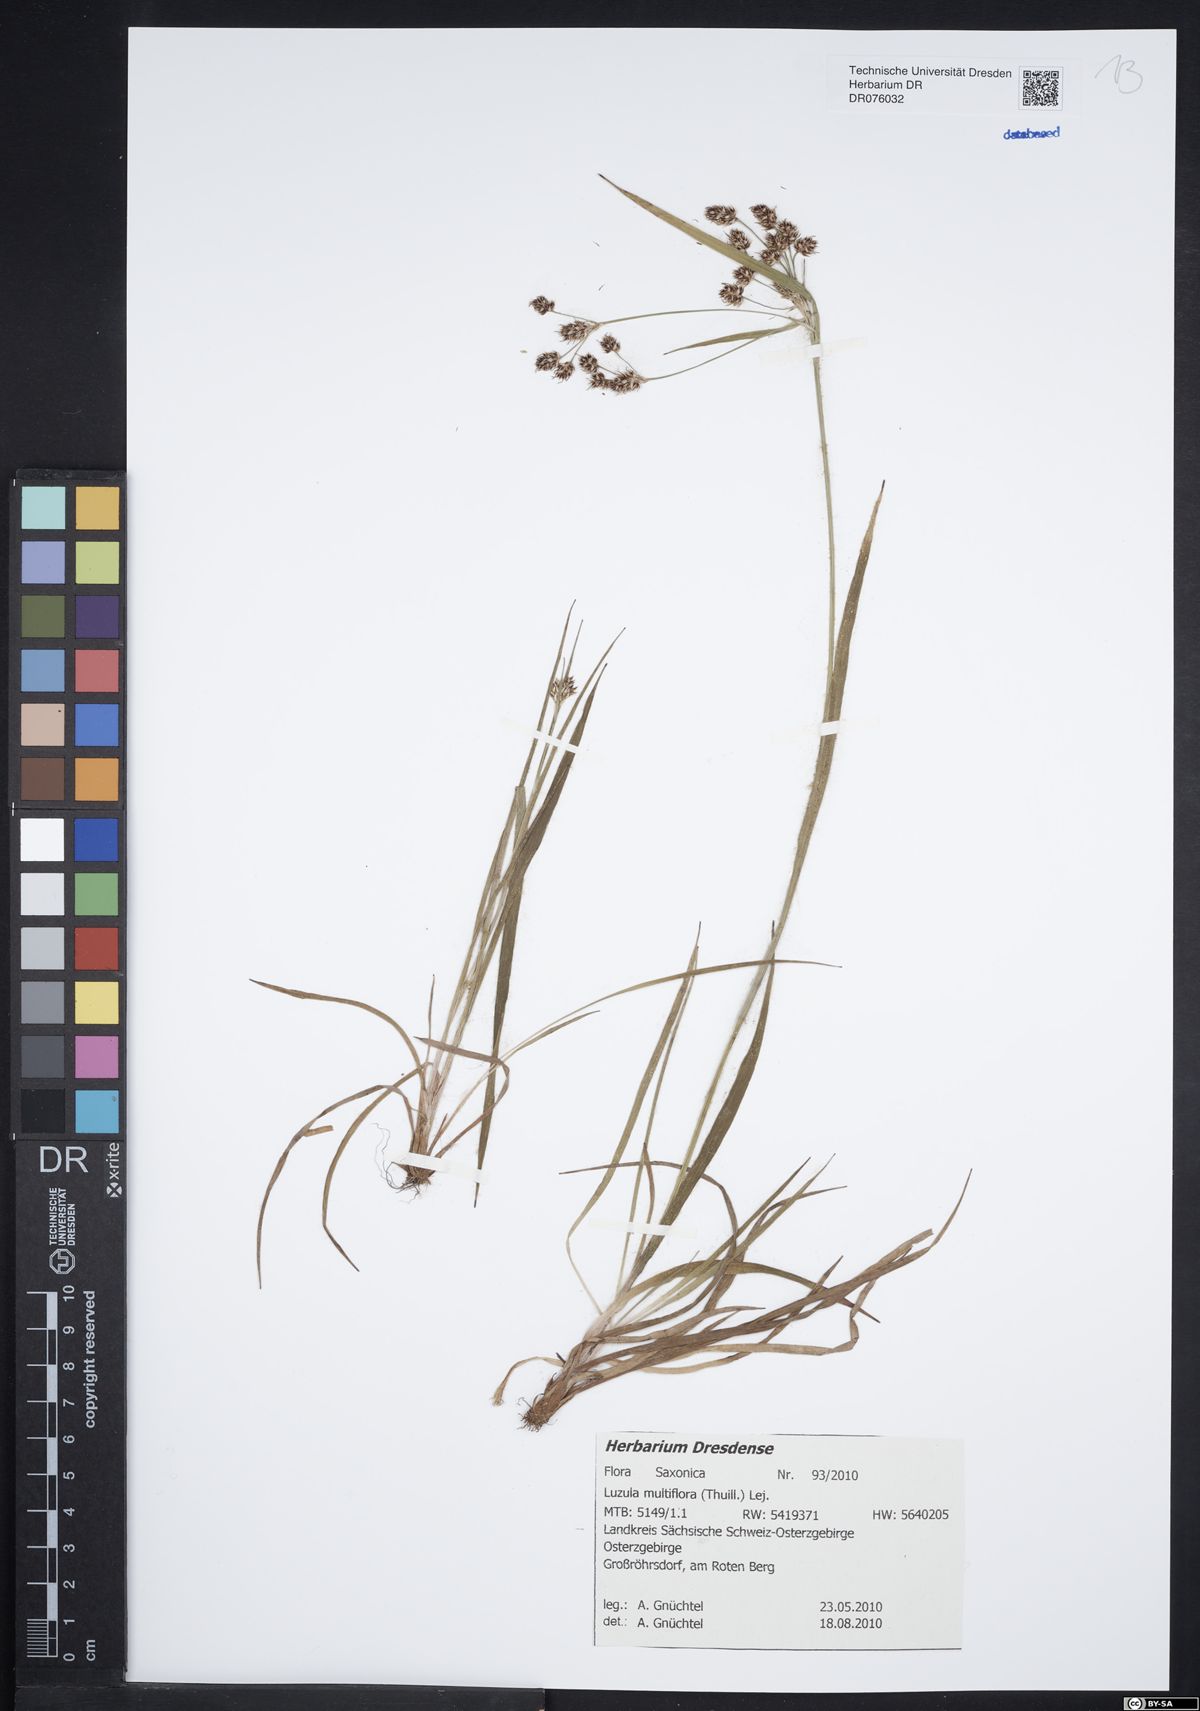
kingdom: Plantae
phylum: Tracheophyta
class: Liliopsida
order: Poales
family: Juncaceae
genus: Luzula
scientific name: Luzula multiflora
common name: Heath wood-rush
